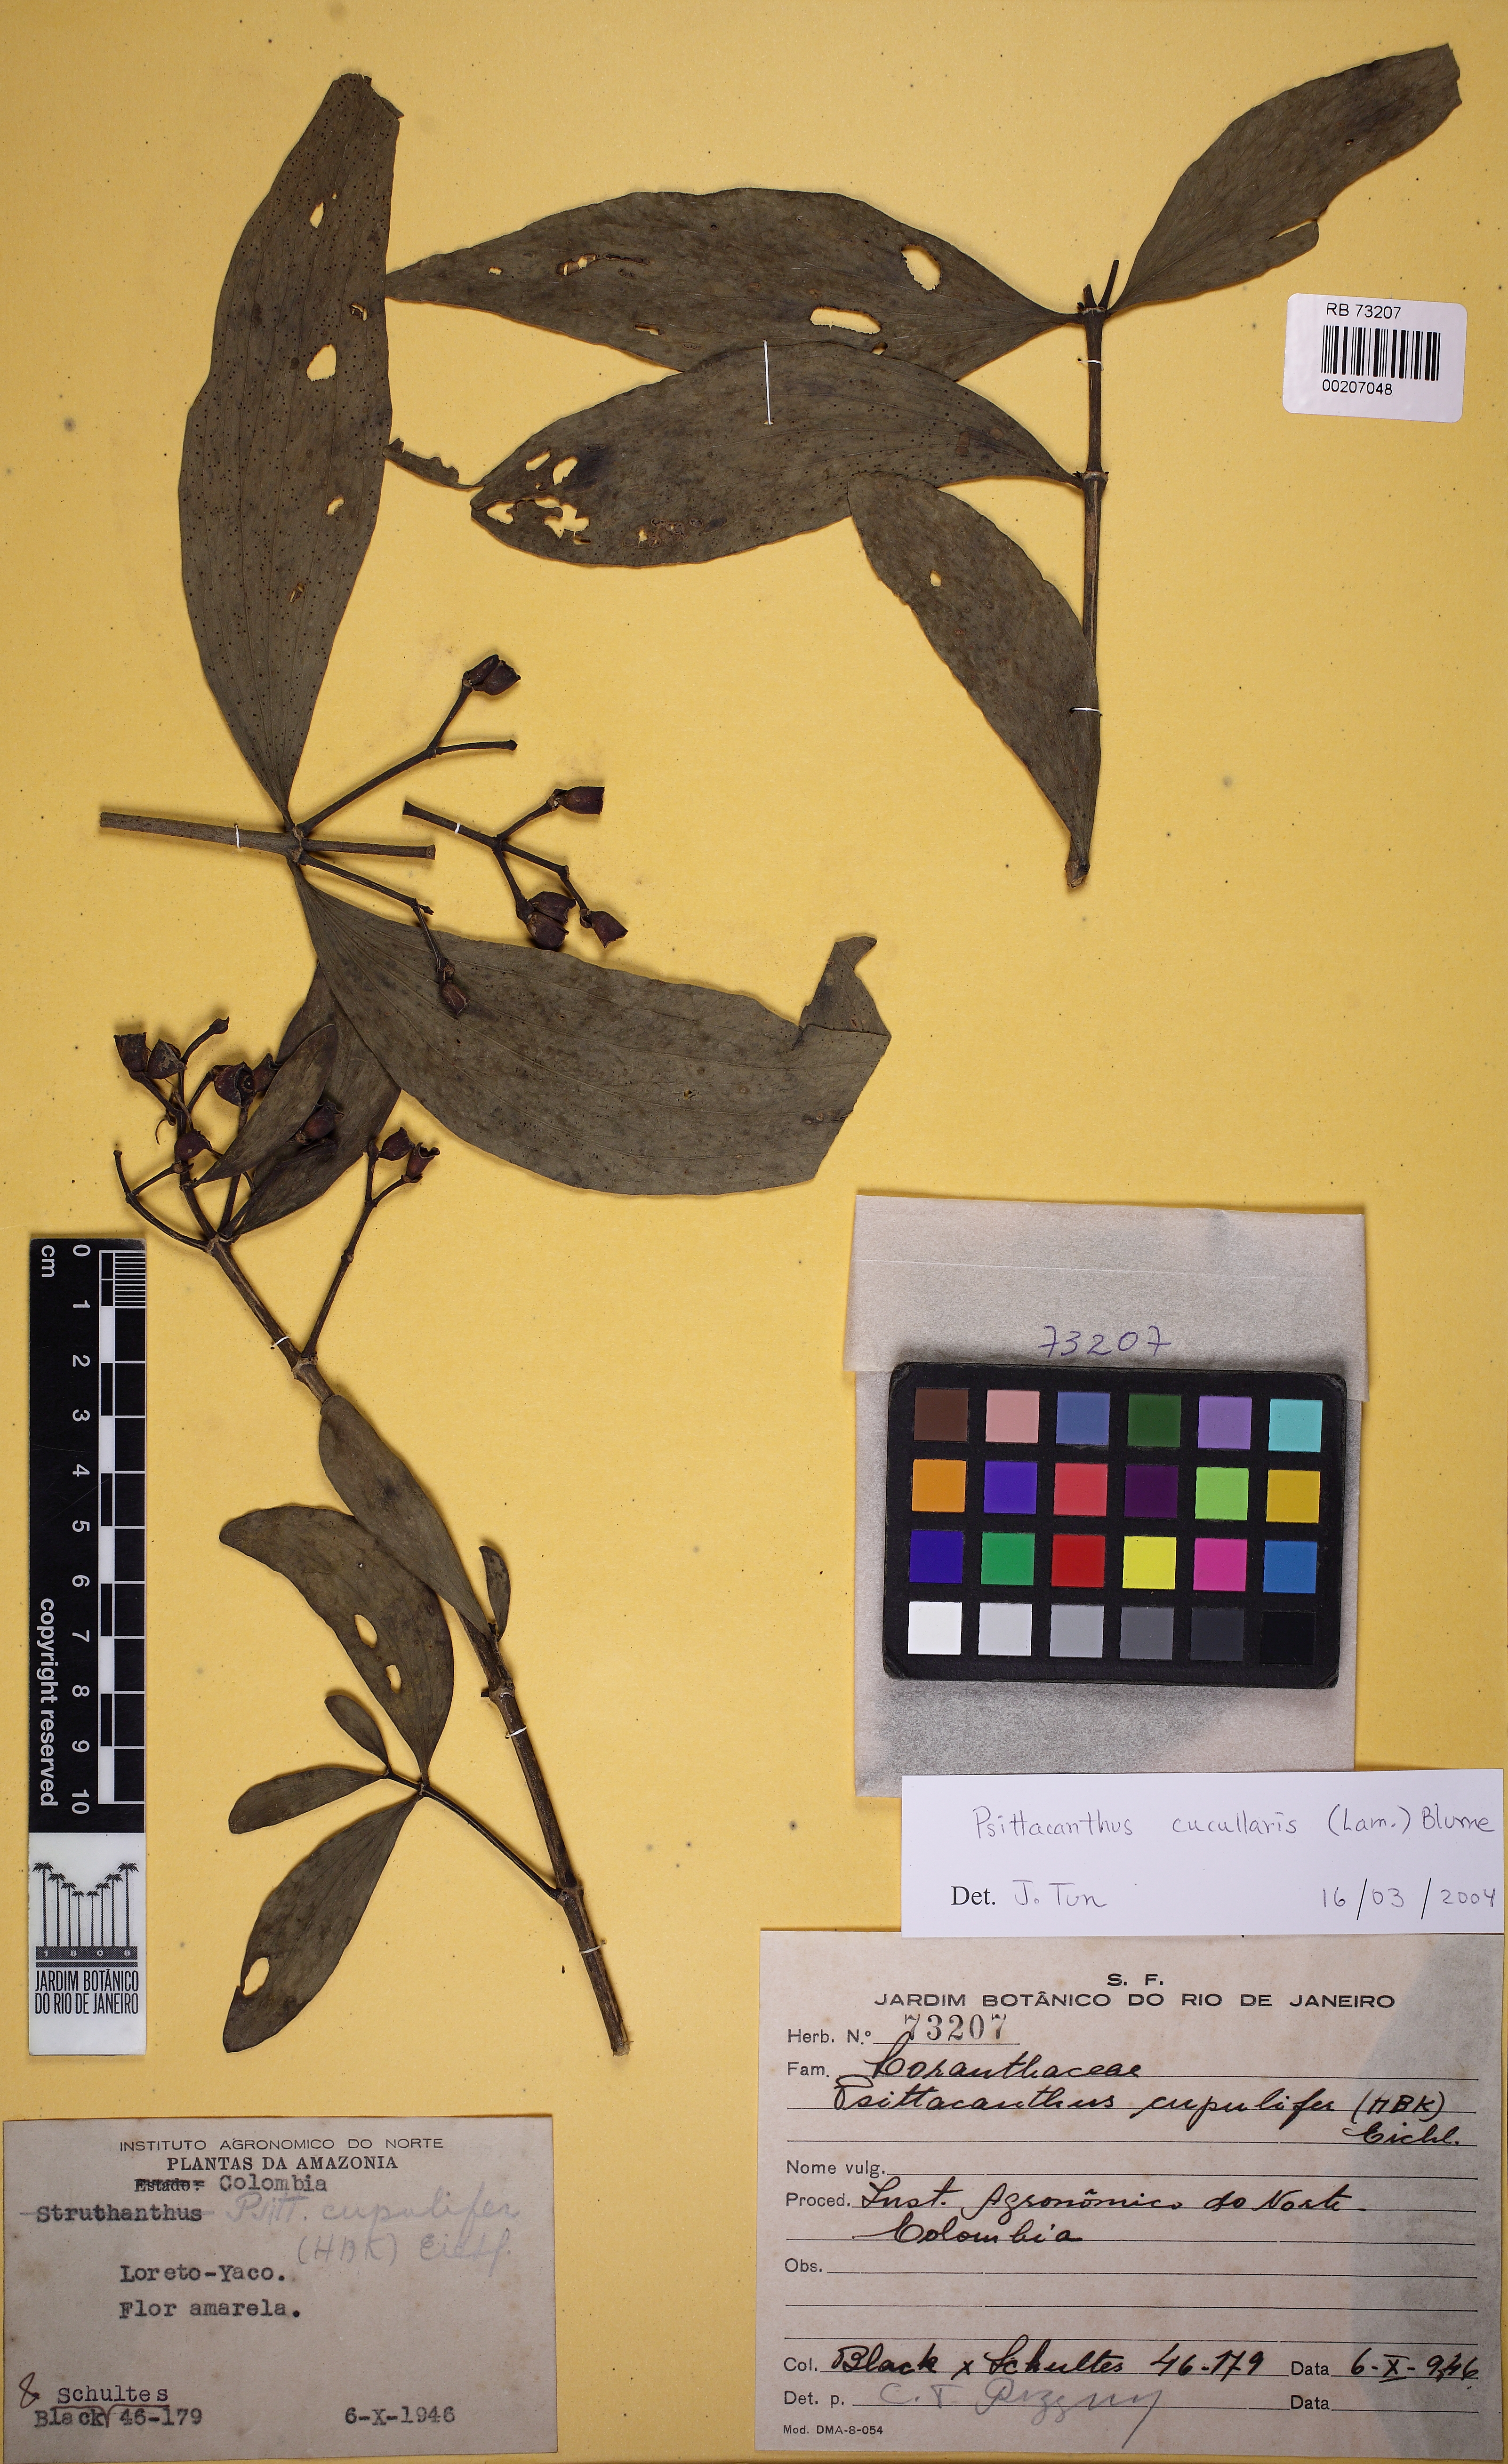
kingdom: Plantae
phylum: Tracheophyta
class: Magnoliopsida
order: Santalales
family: Loranthaceae
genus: Psittacanthus
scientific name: Psittacanthus cucullaris
